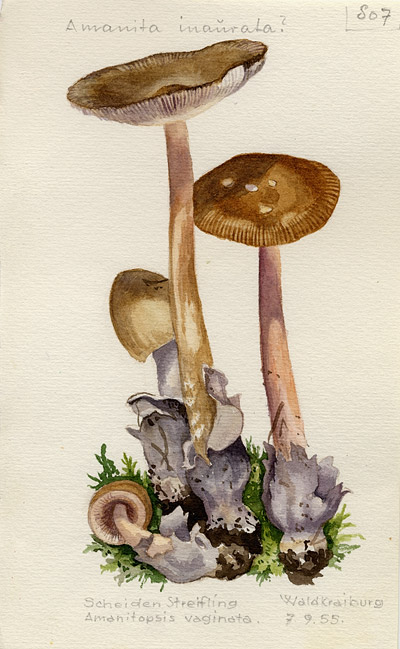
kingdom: Fungi
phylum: Basidiomycota
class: Agaricomycetes
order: Agaricales
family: Amanitaceae
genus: Amanita
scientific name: Amanita ceciliae
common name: Snakeskin grisette
